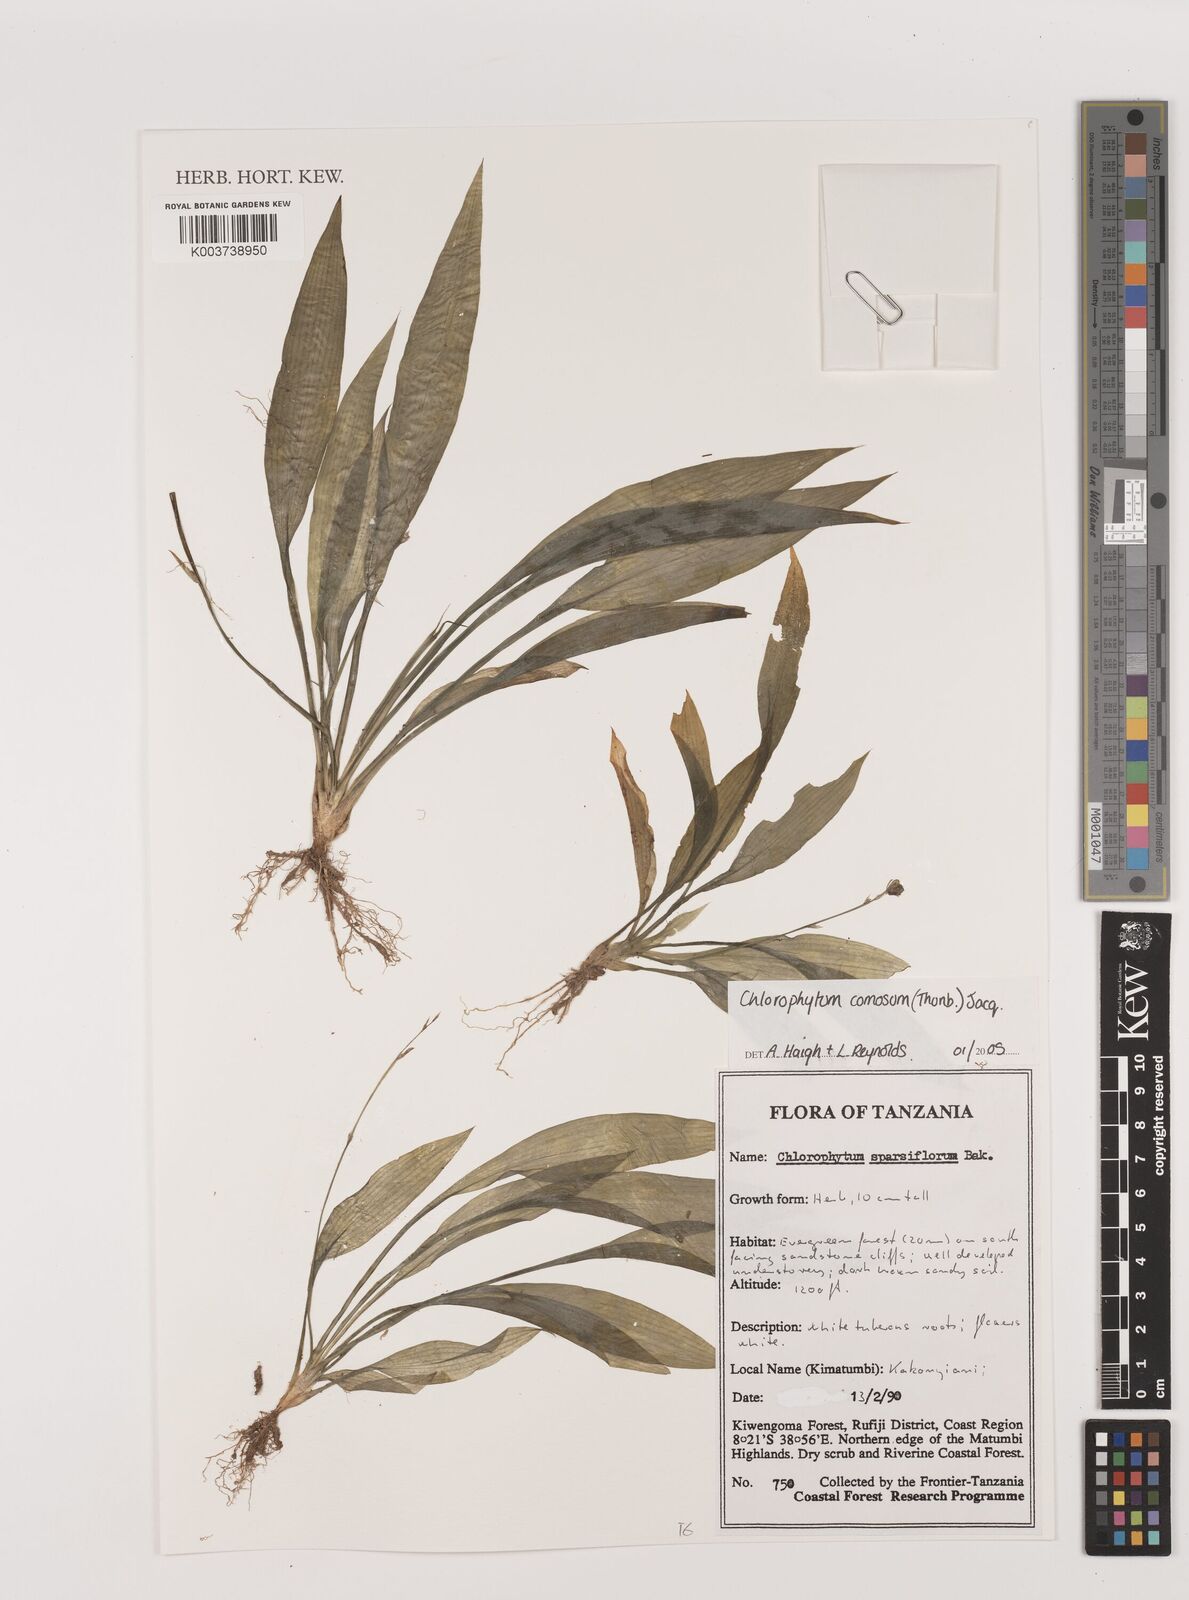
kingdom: Plantae
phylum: Tracheophyta
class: Liliopsida
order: Asparagales
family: Asparagaceae
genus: Chlorophytum
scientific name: Chlorophytum comosum
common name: Spider plant
